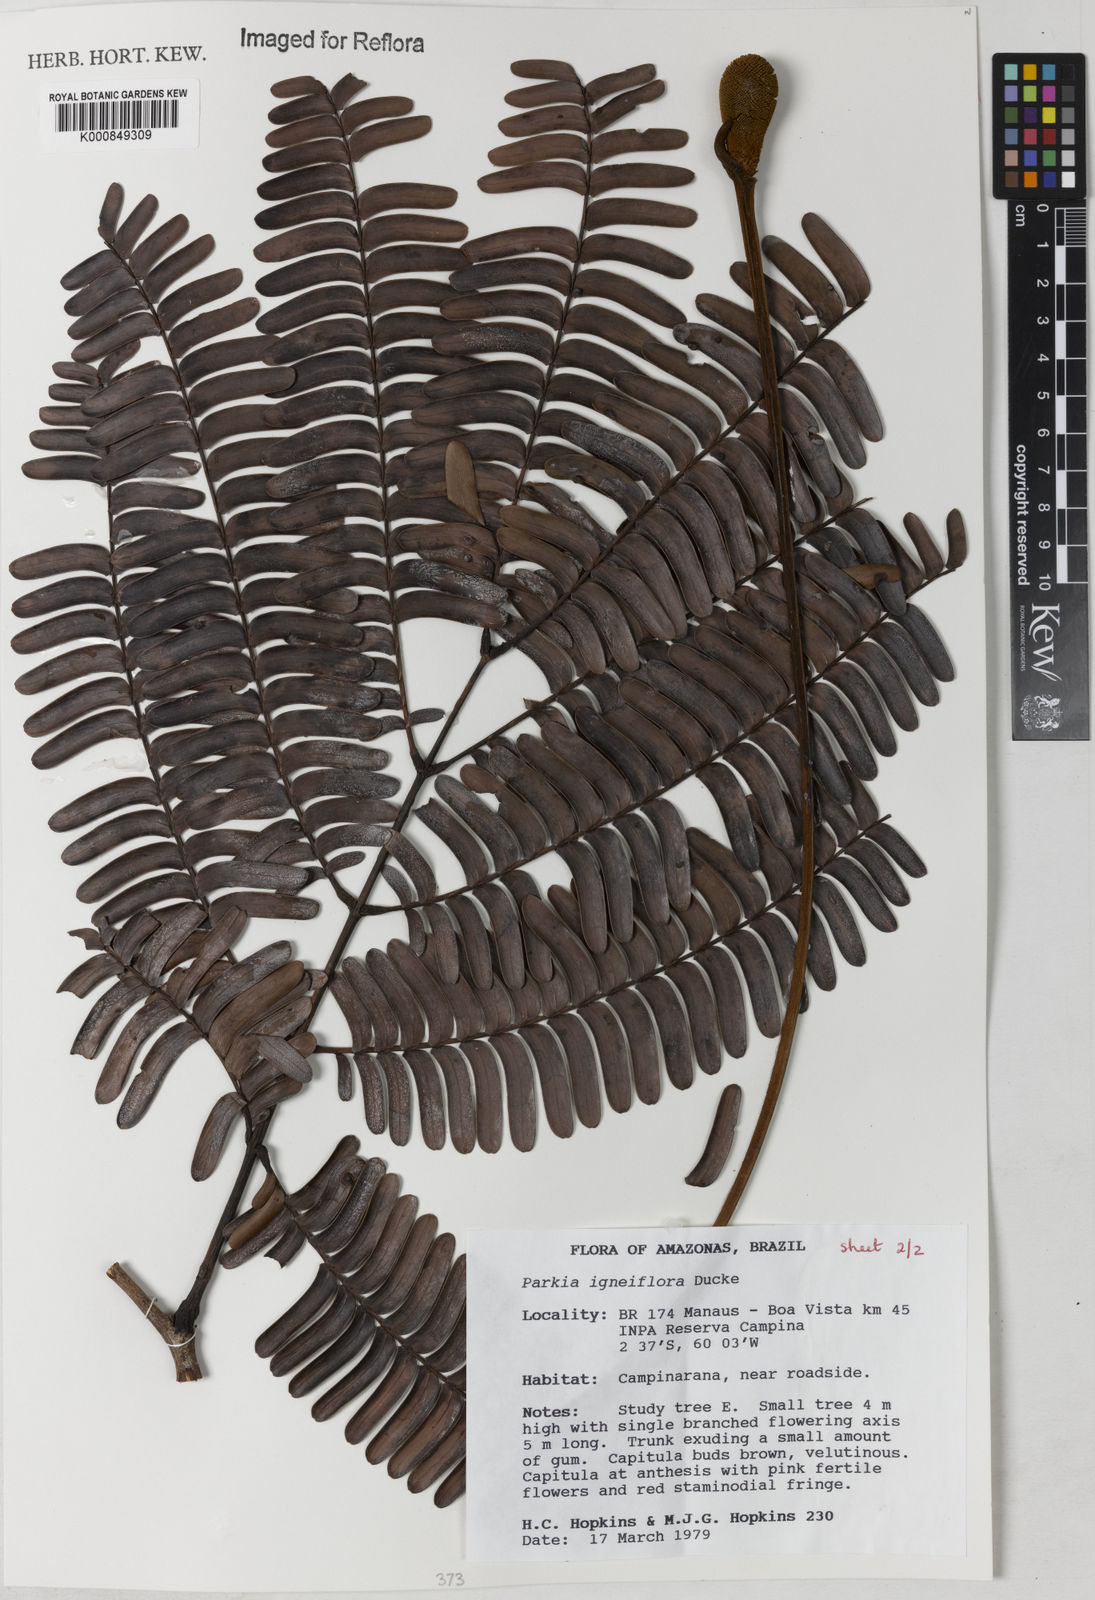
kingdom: Plantae
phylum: Tracheophyta
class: Magnoliopsida
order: Fabales
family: Fabaceae
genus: Parkia
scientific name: Parkia igneiflora
